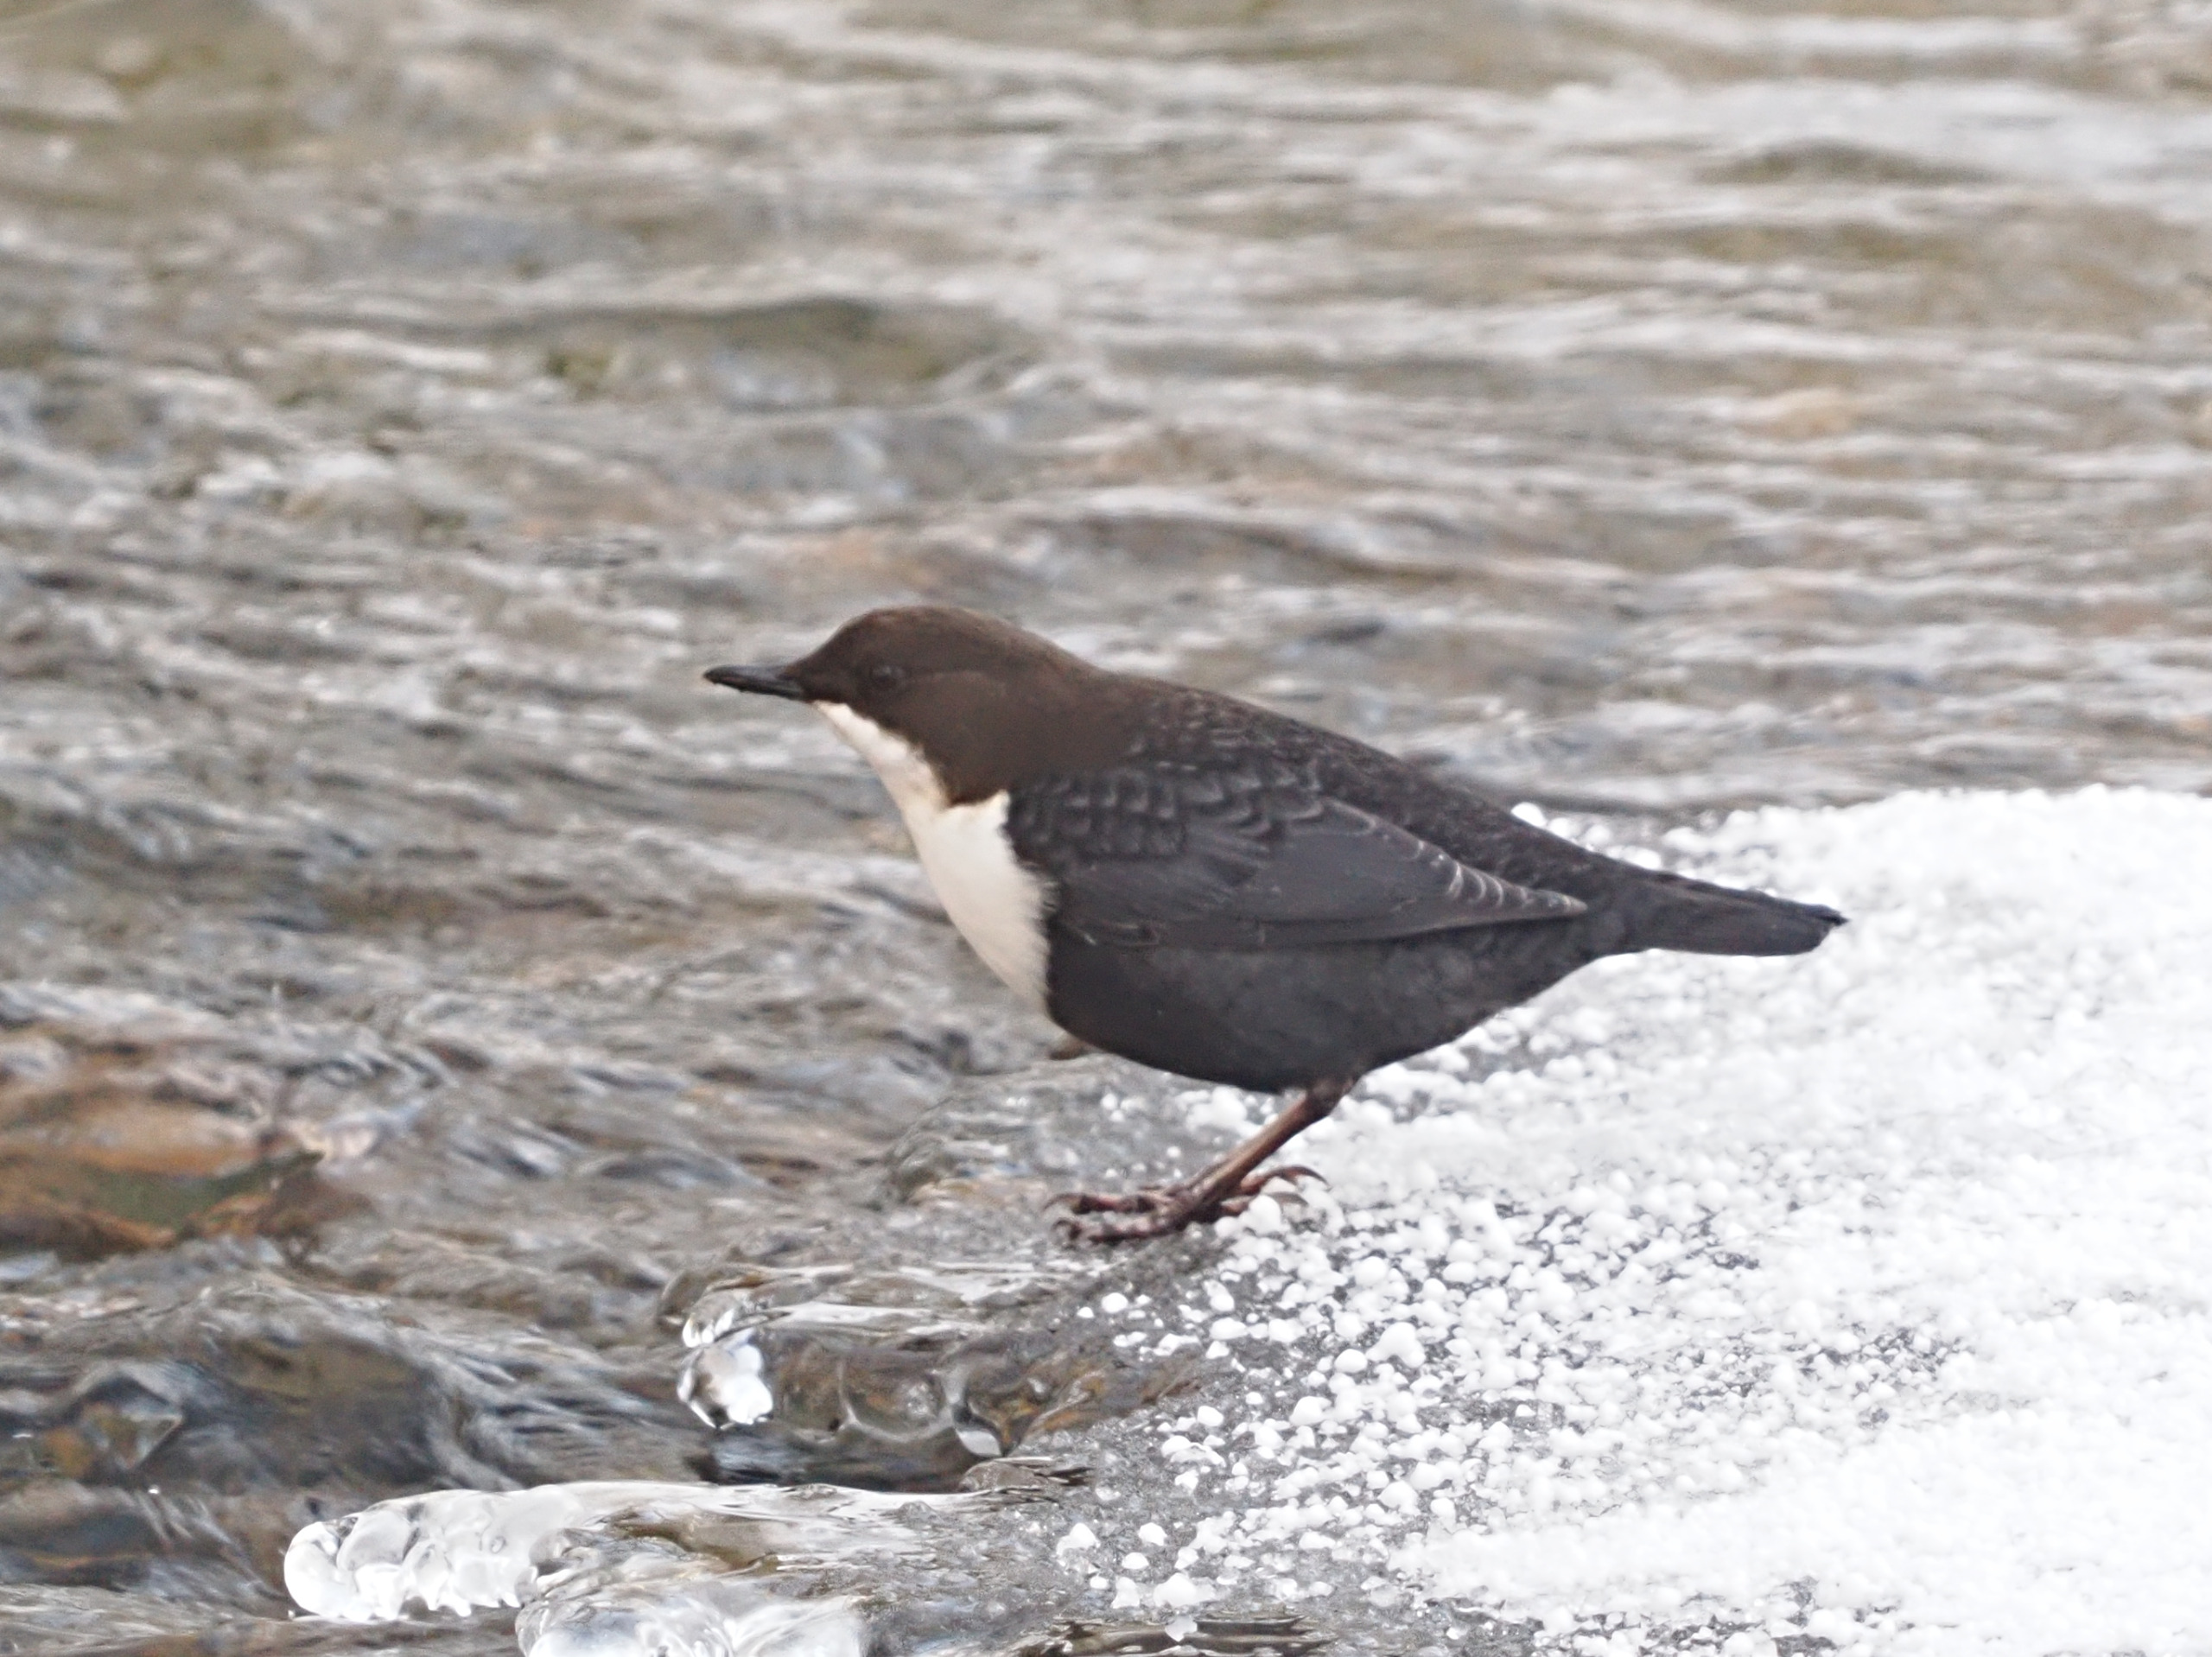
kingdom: Animalia
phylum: Chordata
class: Aves
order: Passeriformes
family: Cinclidae
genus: Cinclus
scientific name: Cinclus cinclus
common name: Vandstær
